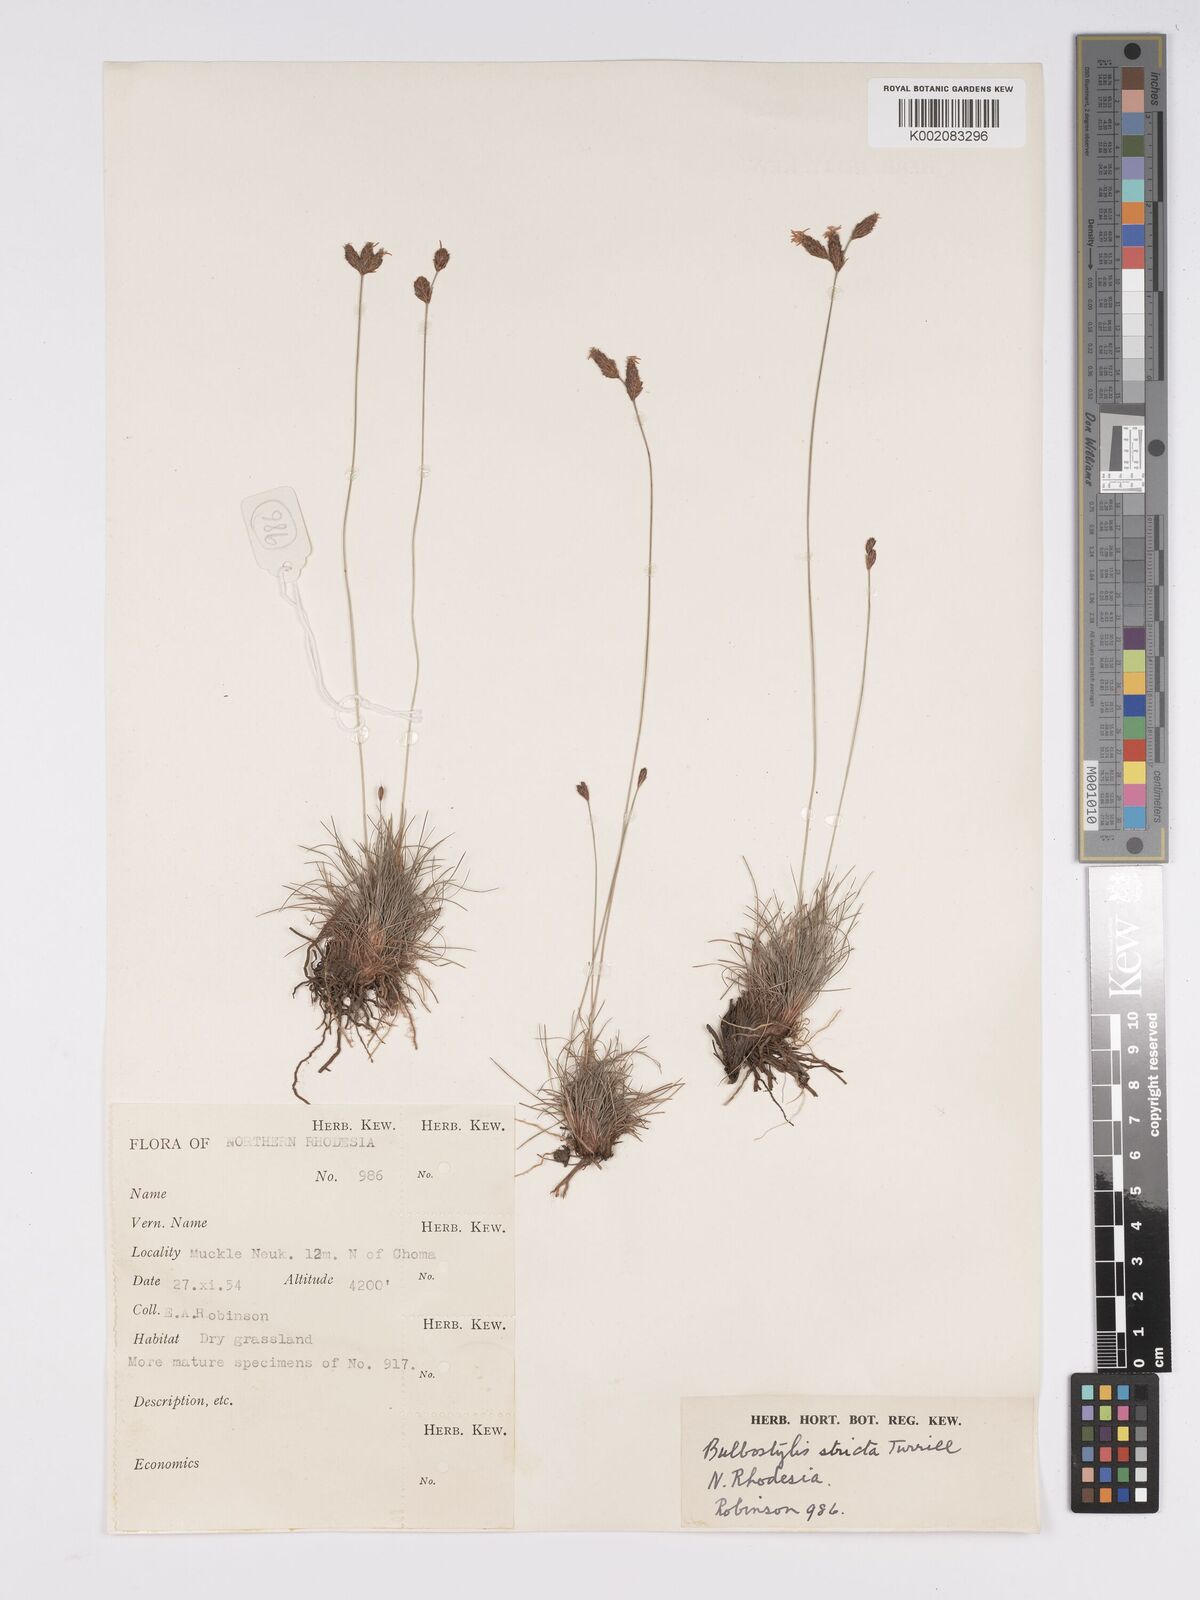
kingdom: Plantae
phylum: Tracheophyta
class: Liliopsida
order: Poales
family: Cyperaceae
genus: Bulbostylis
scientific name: Bulbostylis schoenoides
